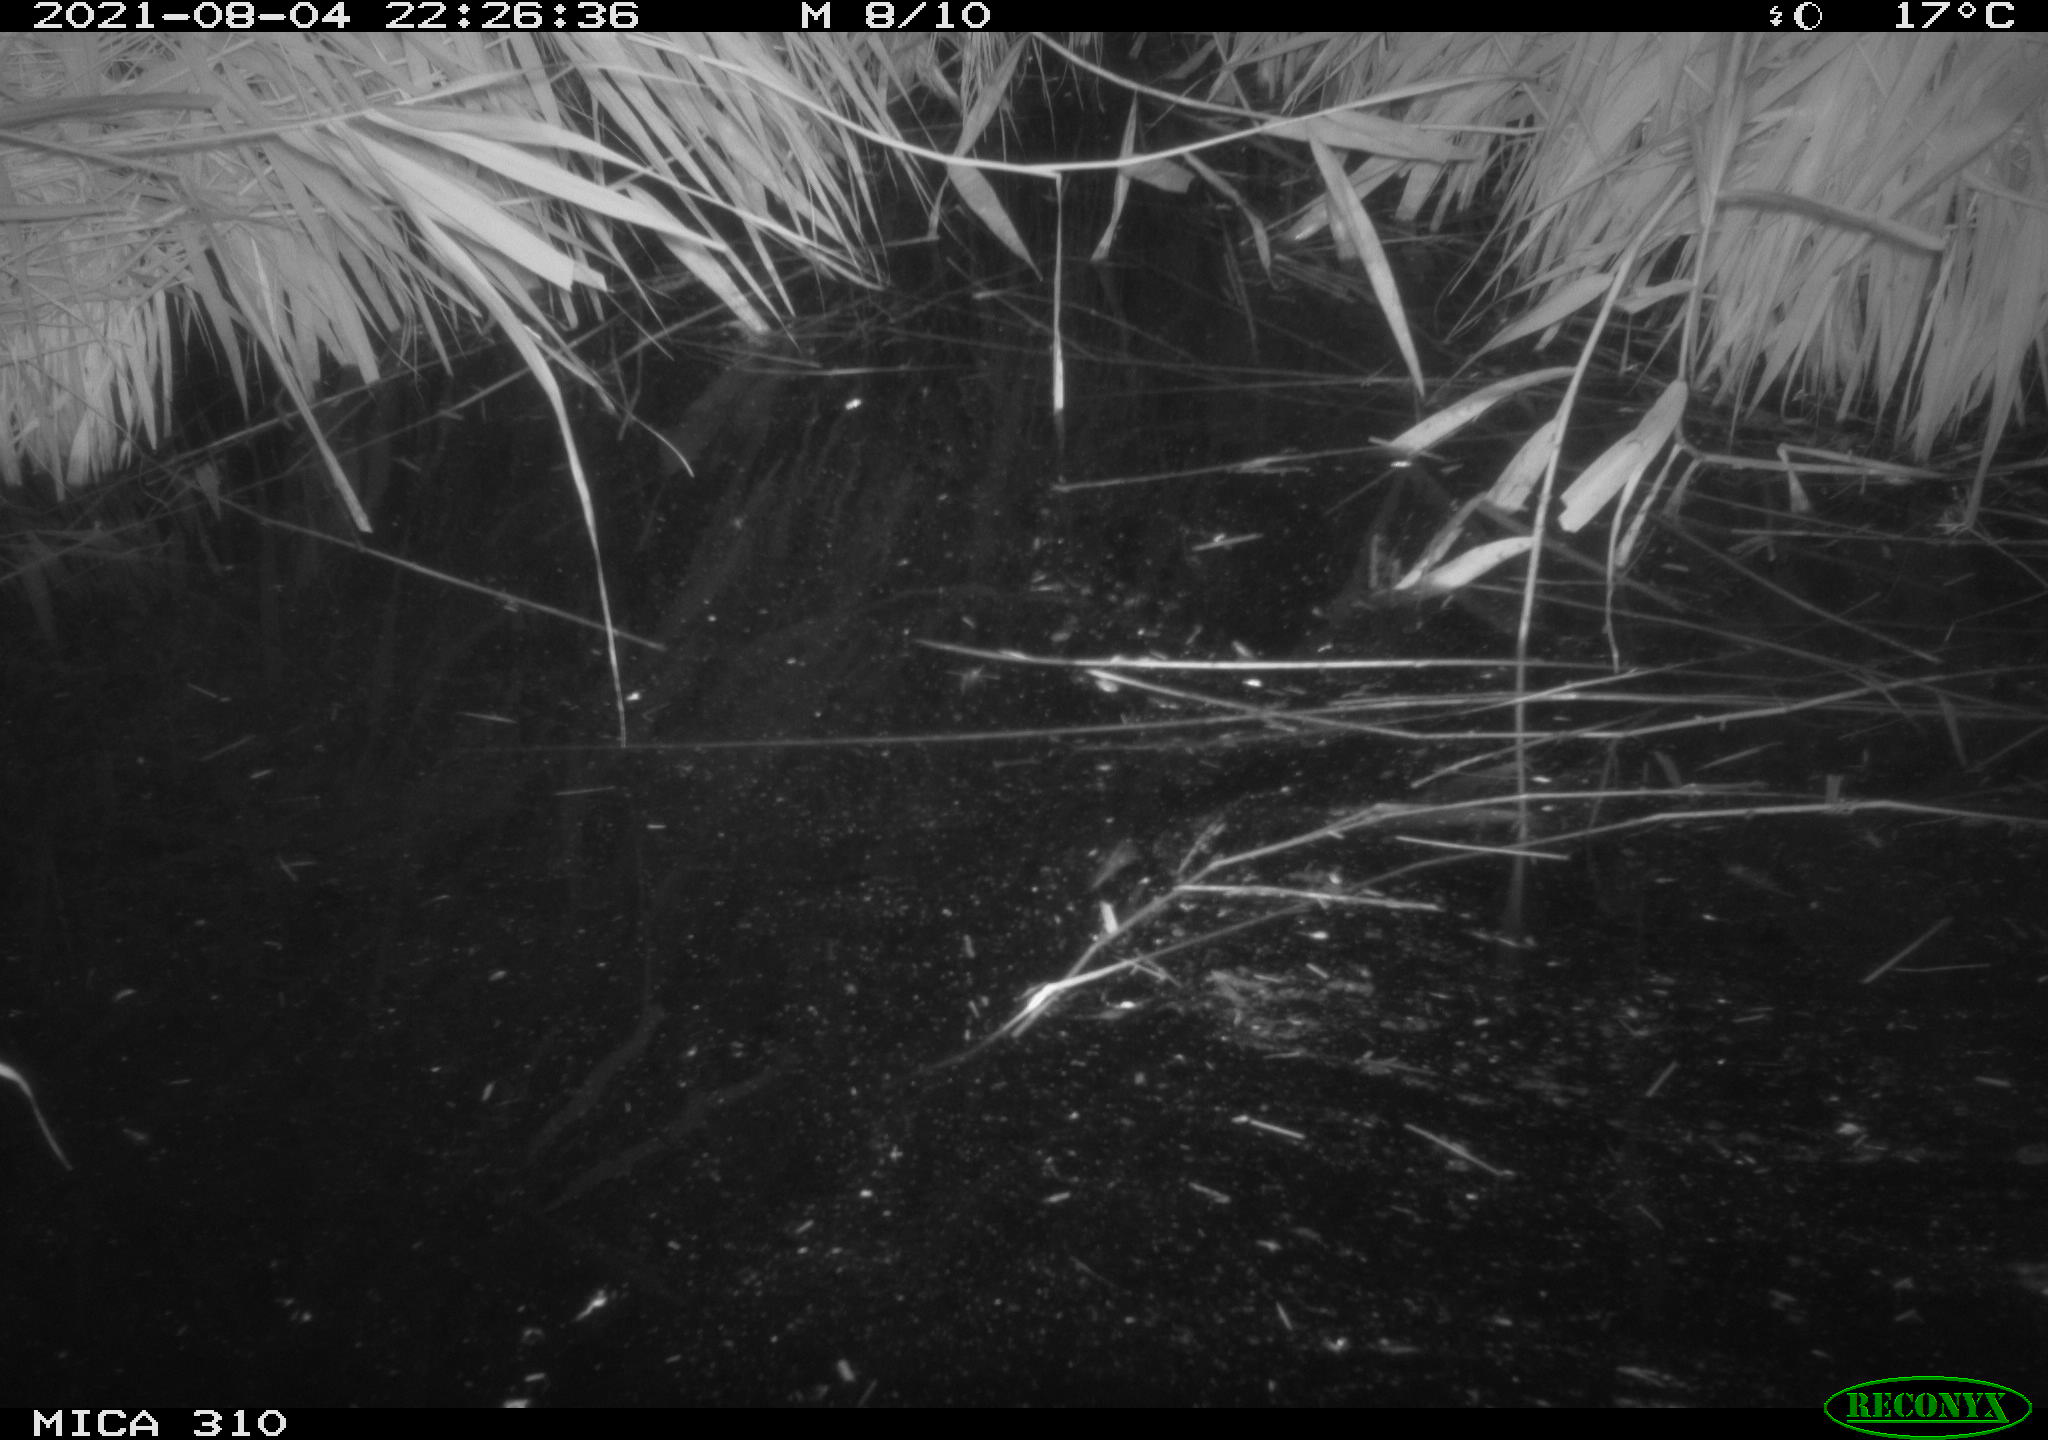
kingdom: Animalia
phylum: Chordata
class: Mammalia
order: Rodentia
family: Muridae
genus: Rattus
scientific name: Rattus norvegicus
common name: Brown rat
